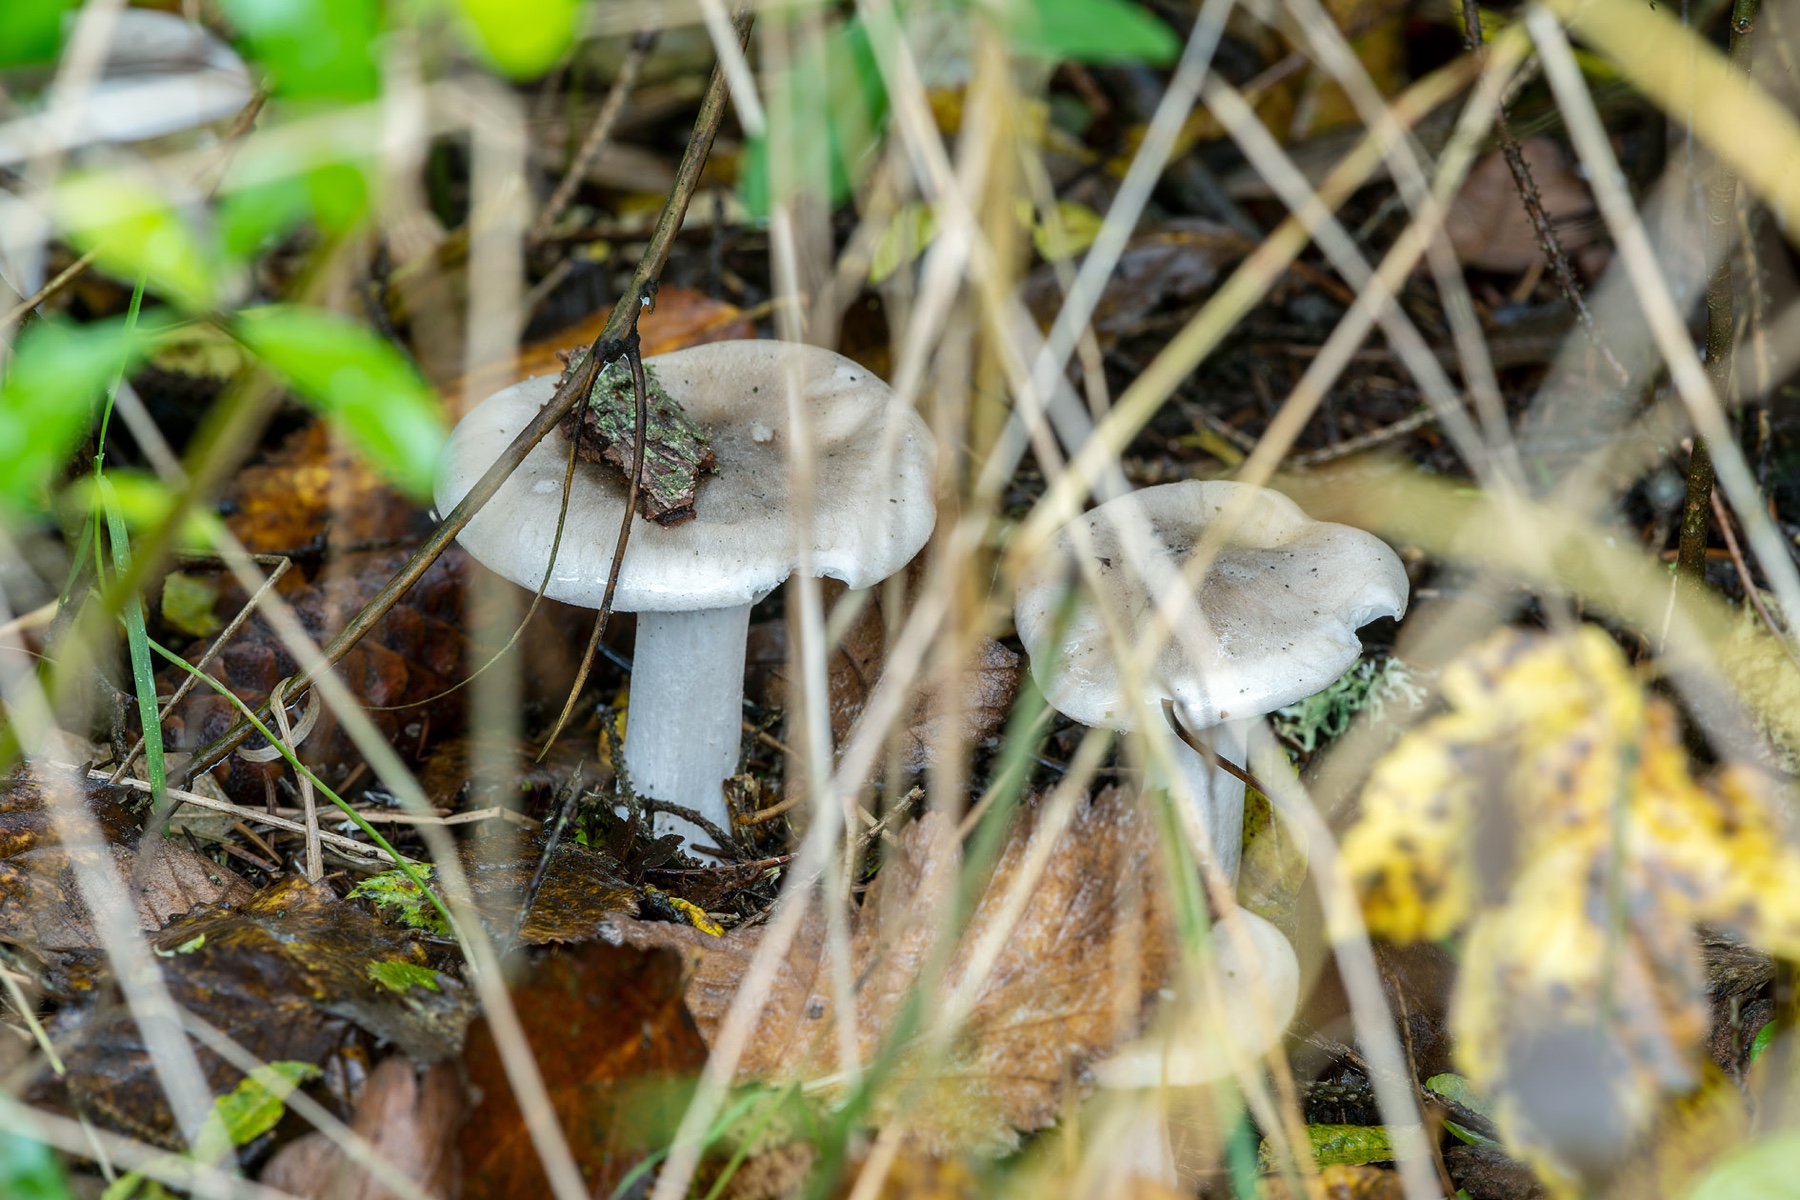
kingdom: Fungi
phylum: Basidiomycota
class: Agaricomycetes
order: Agaricales
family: Tricholomataceae
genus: Clitocybe
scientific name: Clitocybe nebularis
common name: tåge-tragthat
